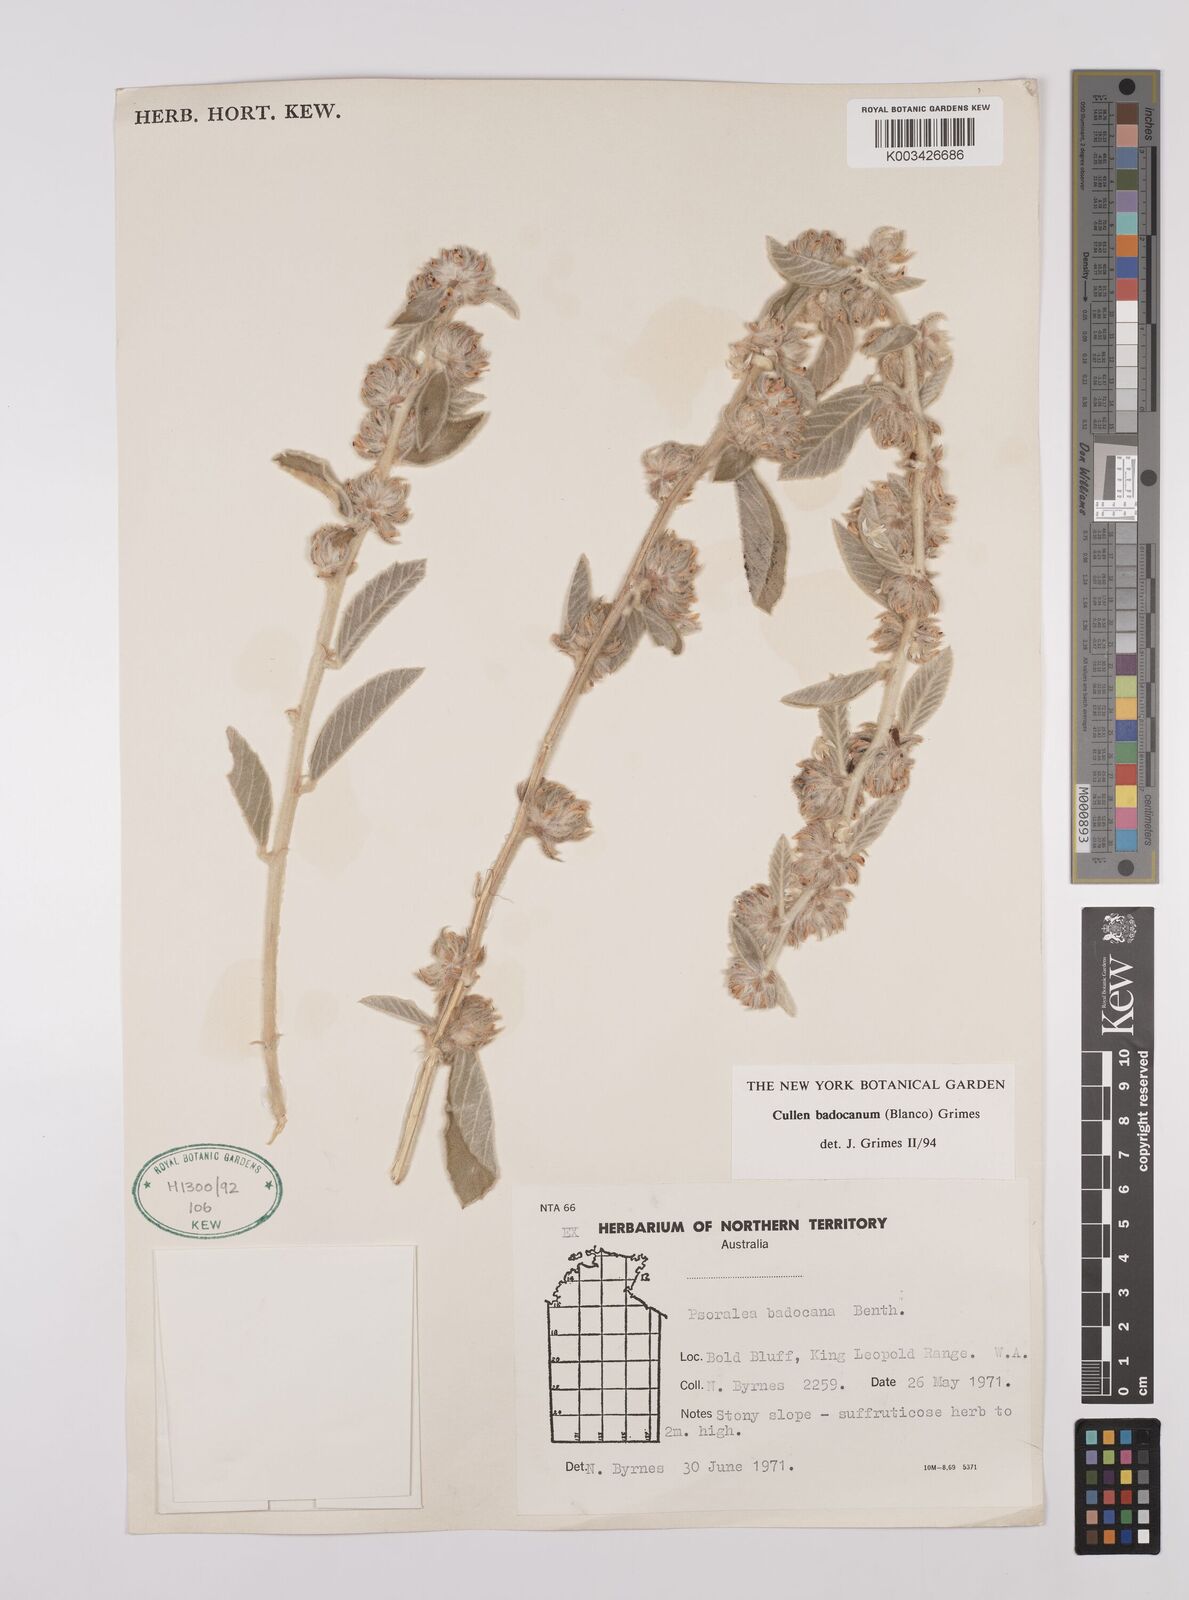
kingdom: Plantae
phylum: Tracheophyta
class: Magnoliopsida
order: Fabales
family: Fabaceae
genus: Cullen
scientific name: Cullen badocanum
